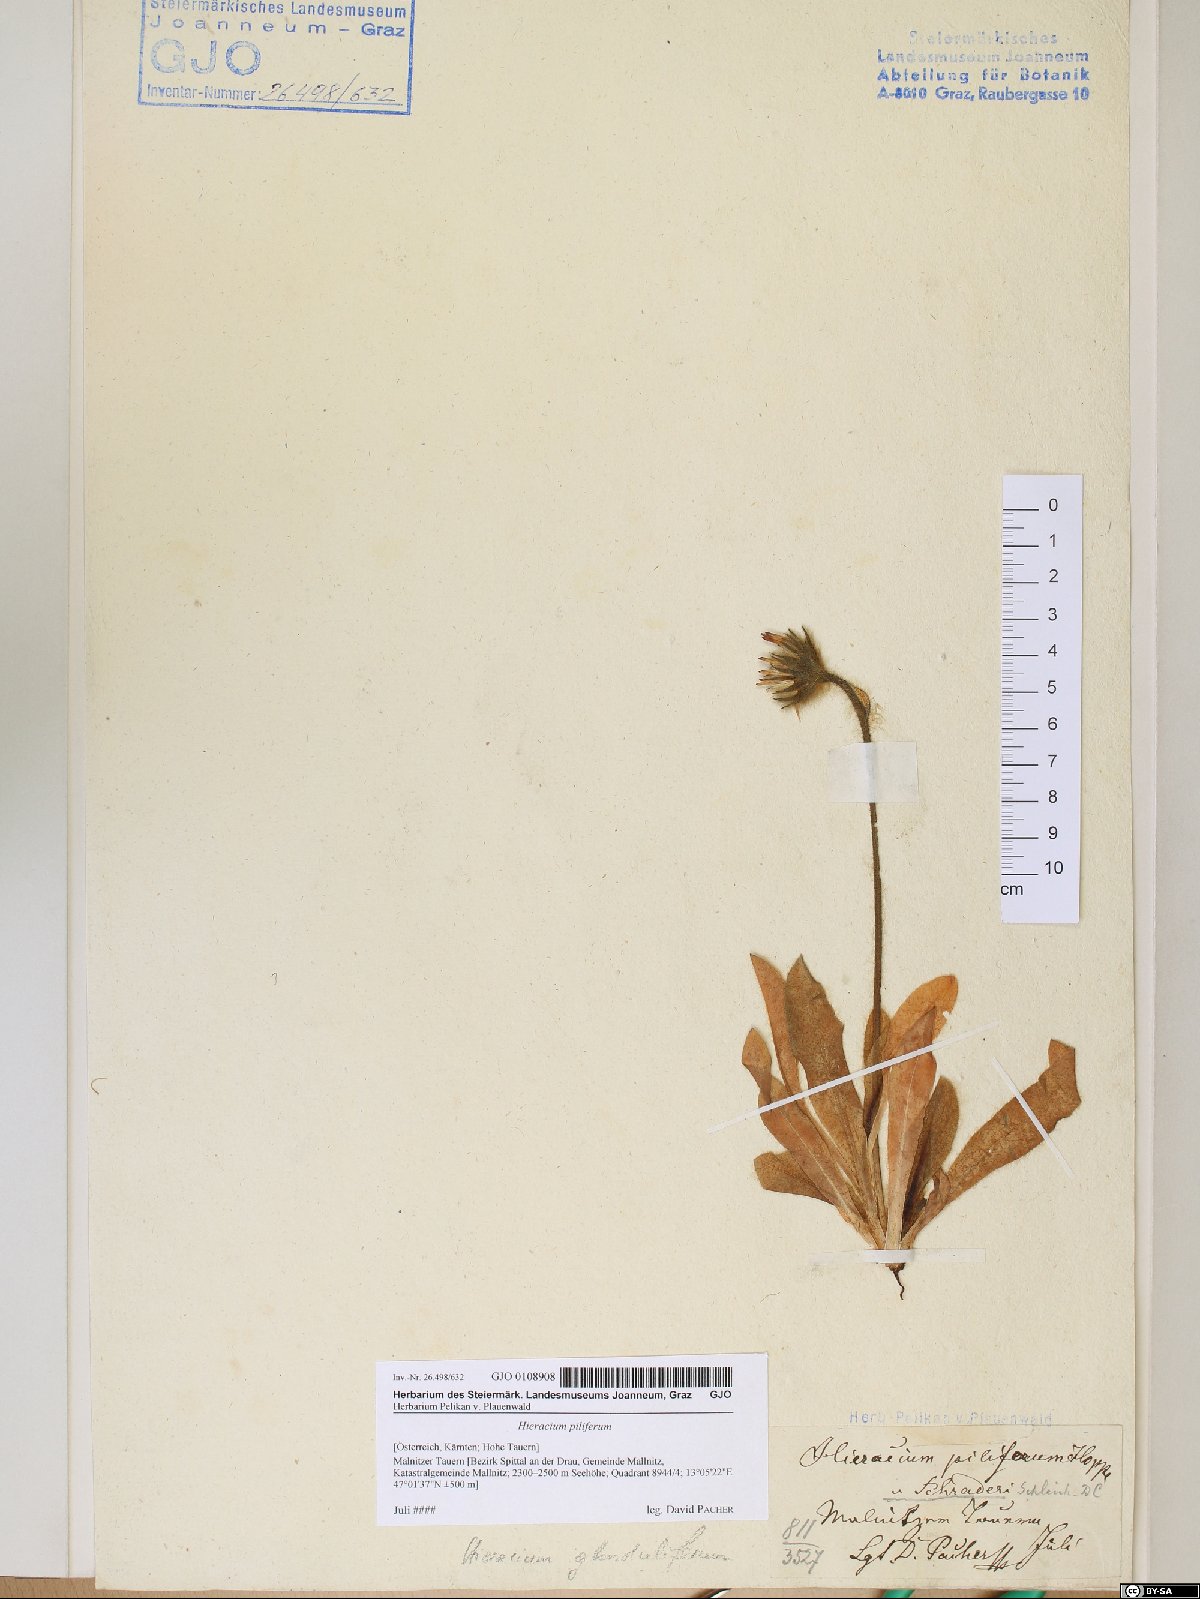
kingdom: Plantae
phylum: Tracheophyta
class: Magnoliopsida
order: Asterales
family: Asteraceae
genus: Hieracium
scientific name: Hieracium piliferum
